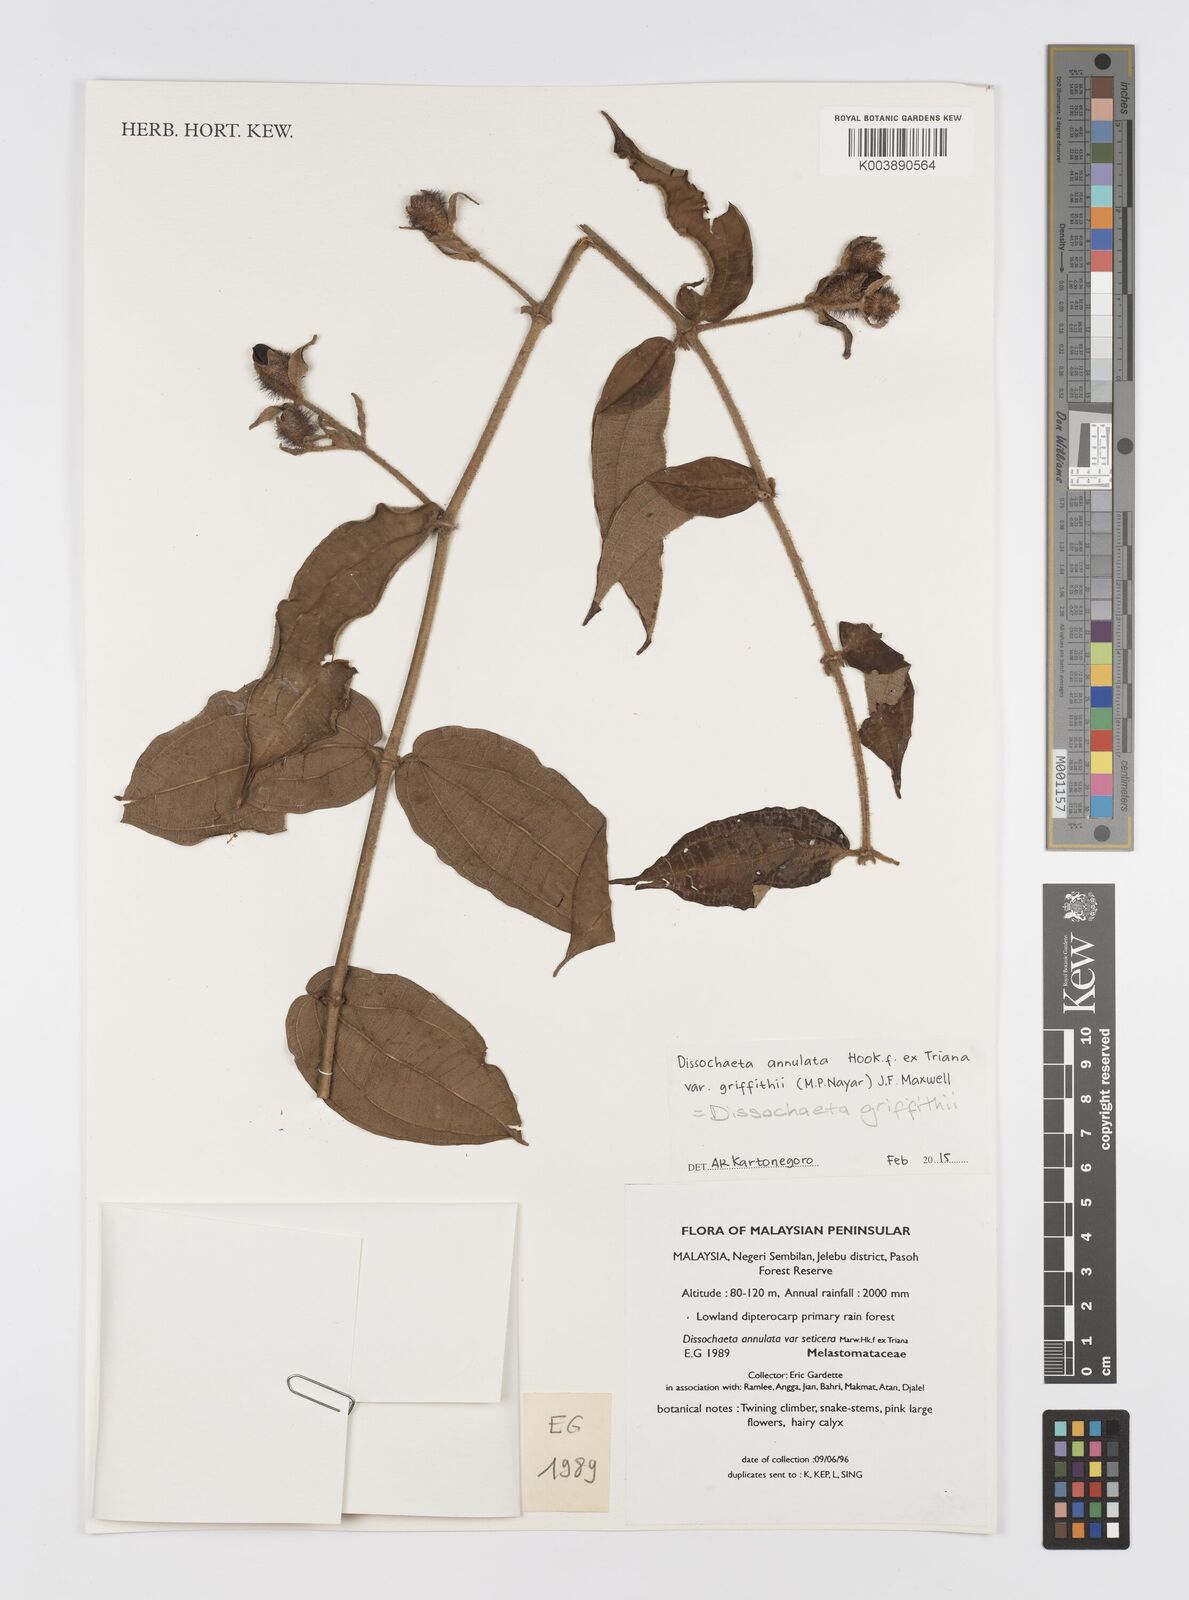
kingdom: Plantae
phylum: Tracheophyta
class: Magnoliopsida
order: Myrtales
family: Melastomataceae
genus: Dissochaeta
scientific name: Dissochaeta griffithii
